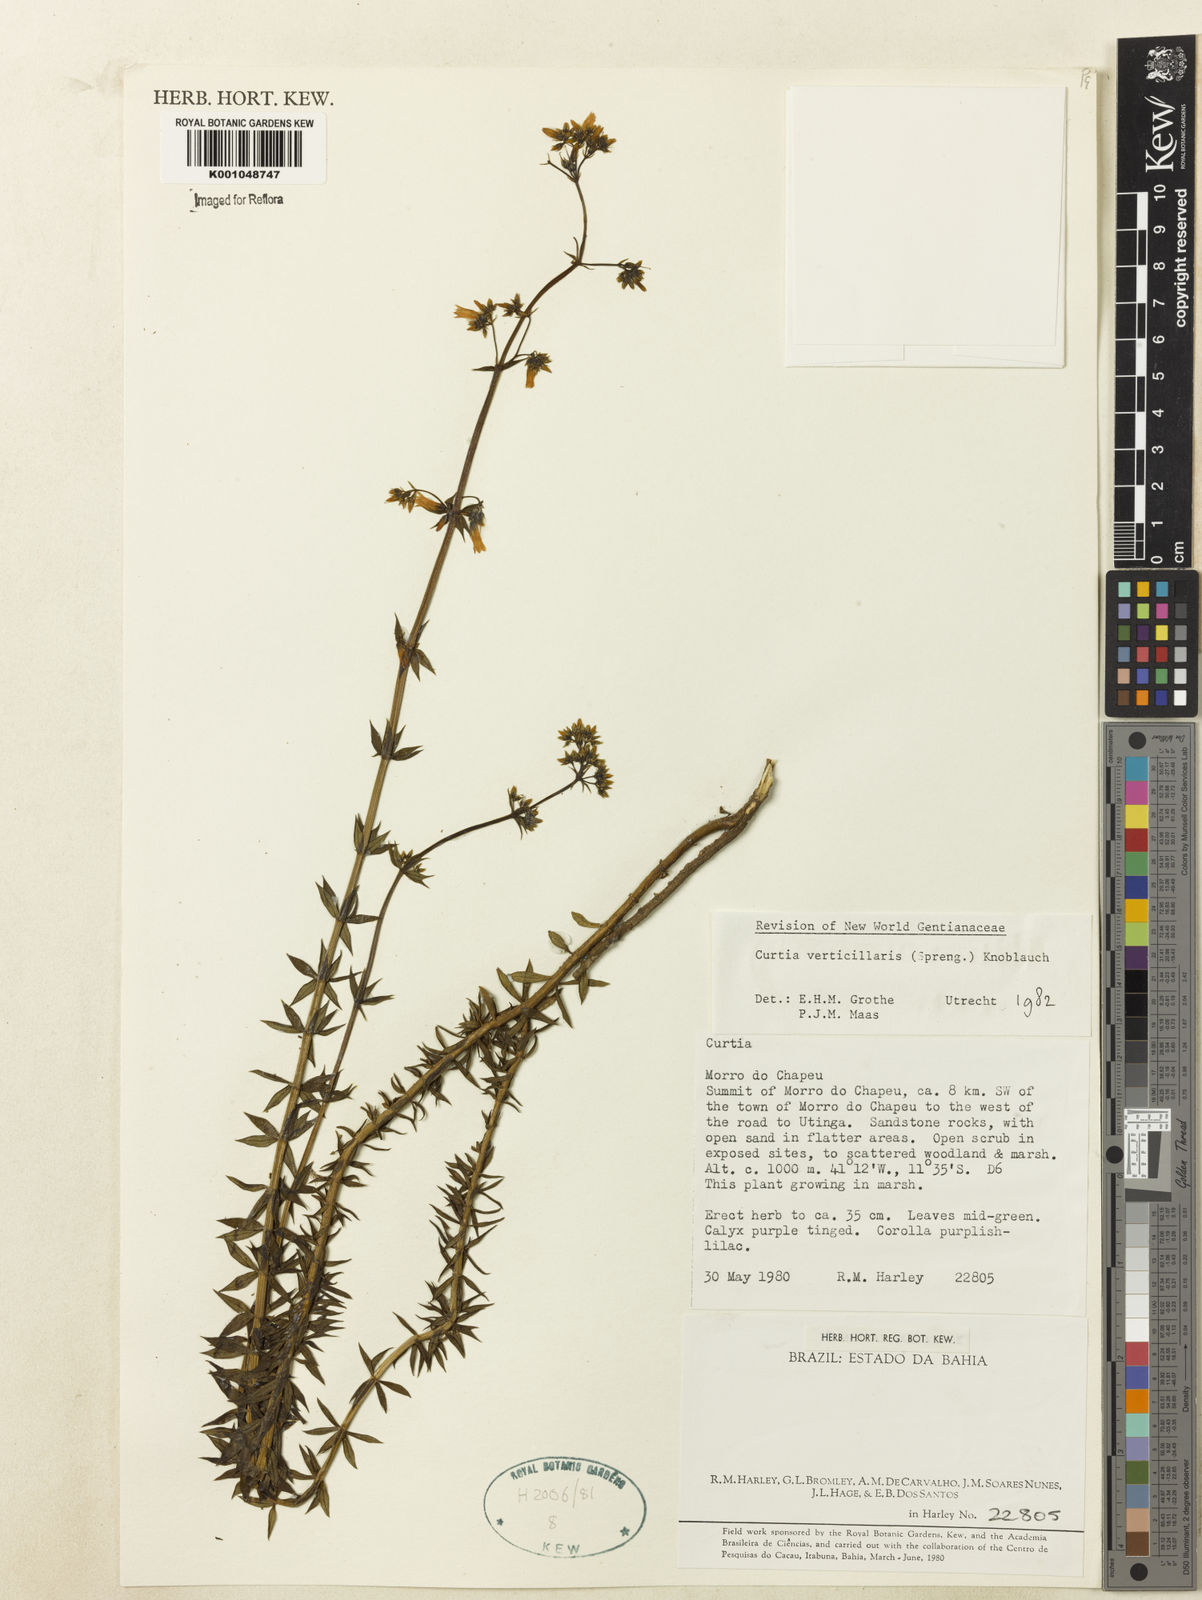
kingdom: Plantae
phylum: Tracheophyta
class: Magnoliopsida
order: Gentianales
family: Gentianaceae
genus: Curtia
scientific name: Curtia verticillaris
